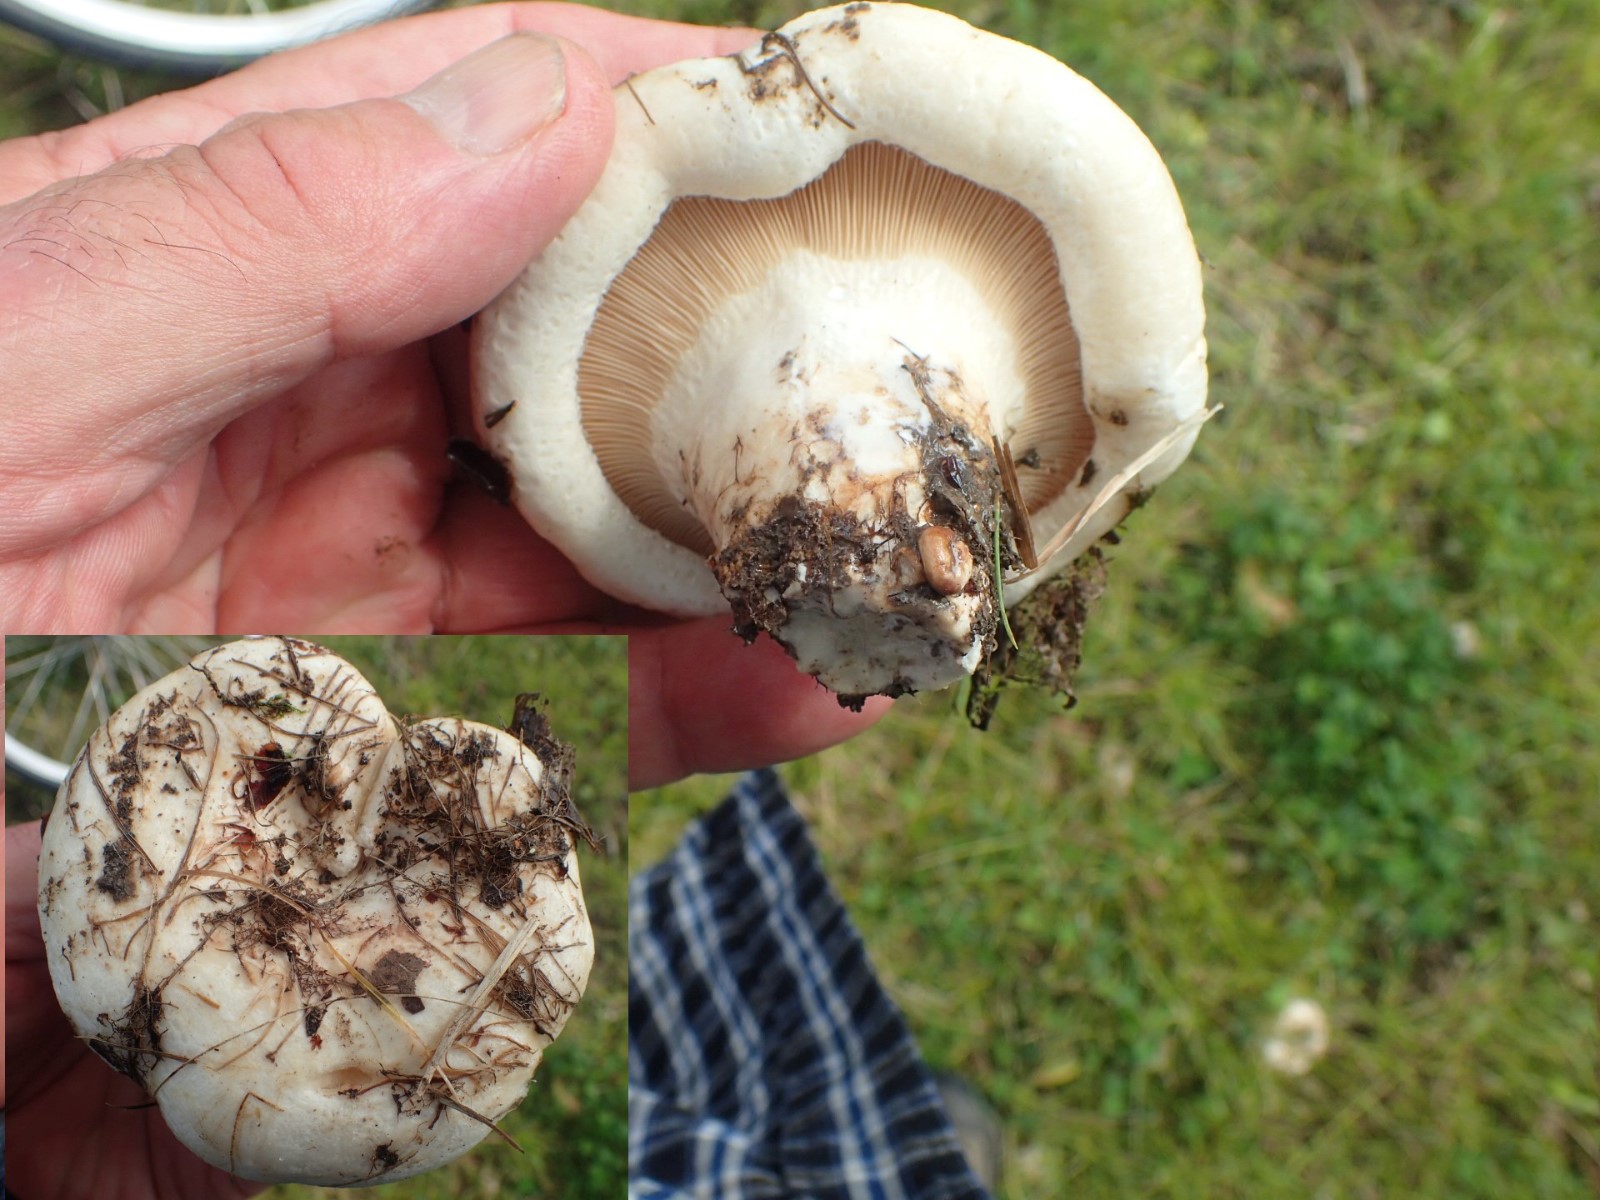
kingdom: Fungi
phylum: Basidiomycota
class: Agaricomycetes
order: Russulales
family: Russulaceae
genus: Lactarius
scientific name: Lactarius controversus
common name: rosabladet mælkehat
